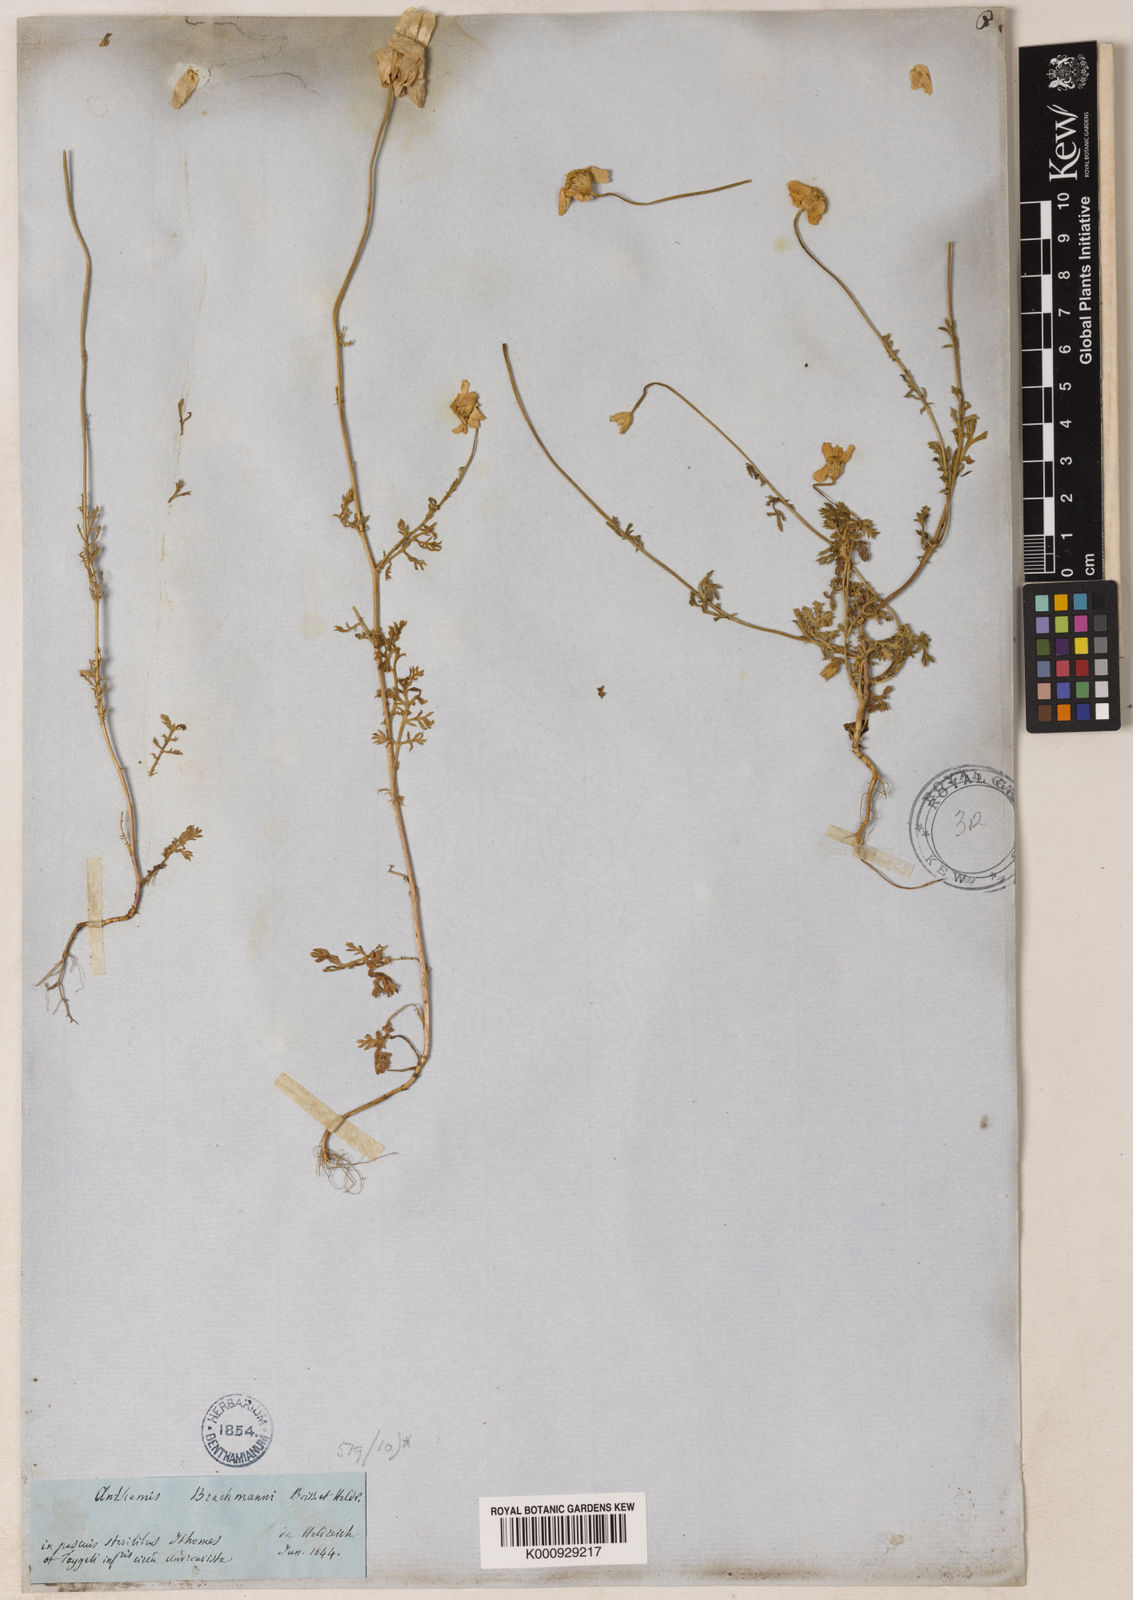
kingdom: Plantae
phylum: Tracheophyta
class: Magnoliopsida
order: Asterales
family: Asteraceae
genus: Cota
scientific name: Cota brachmanni
